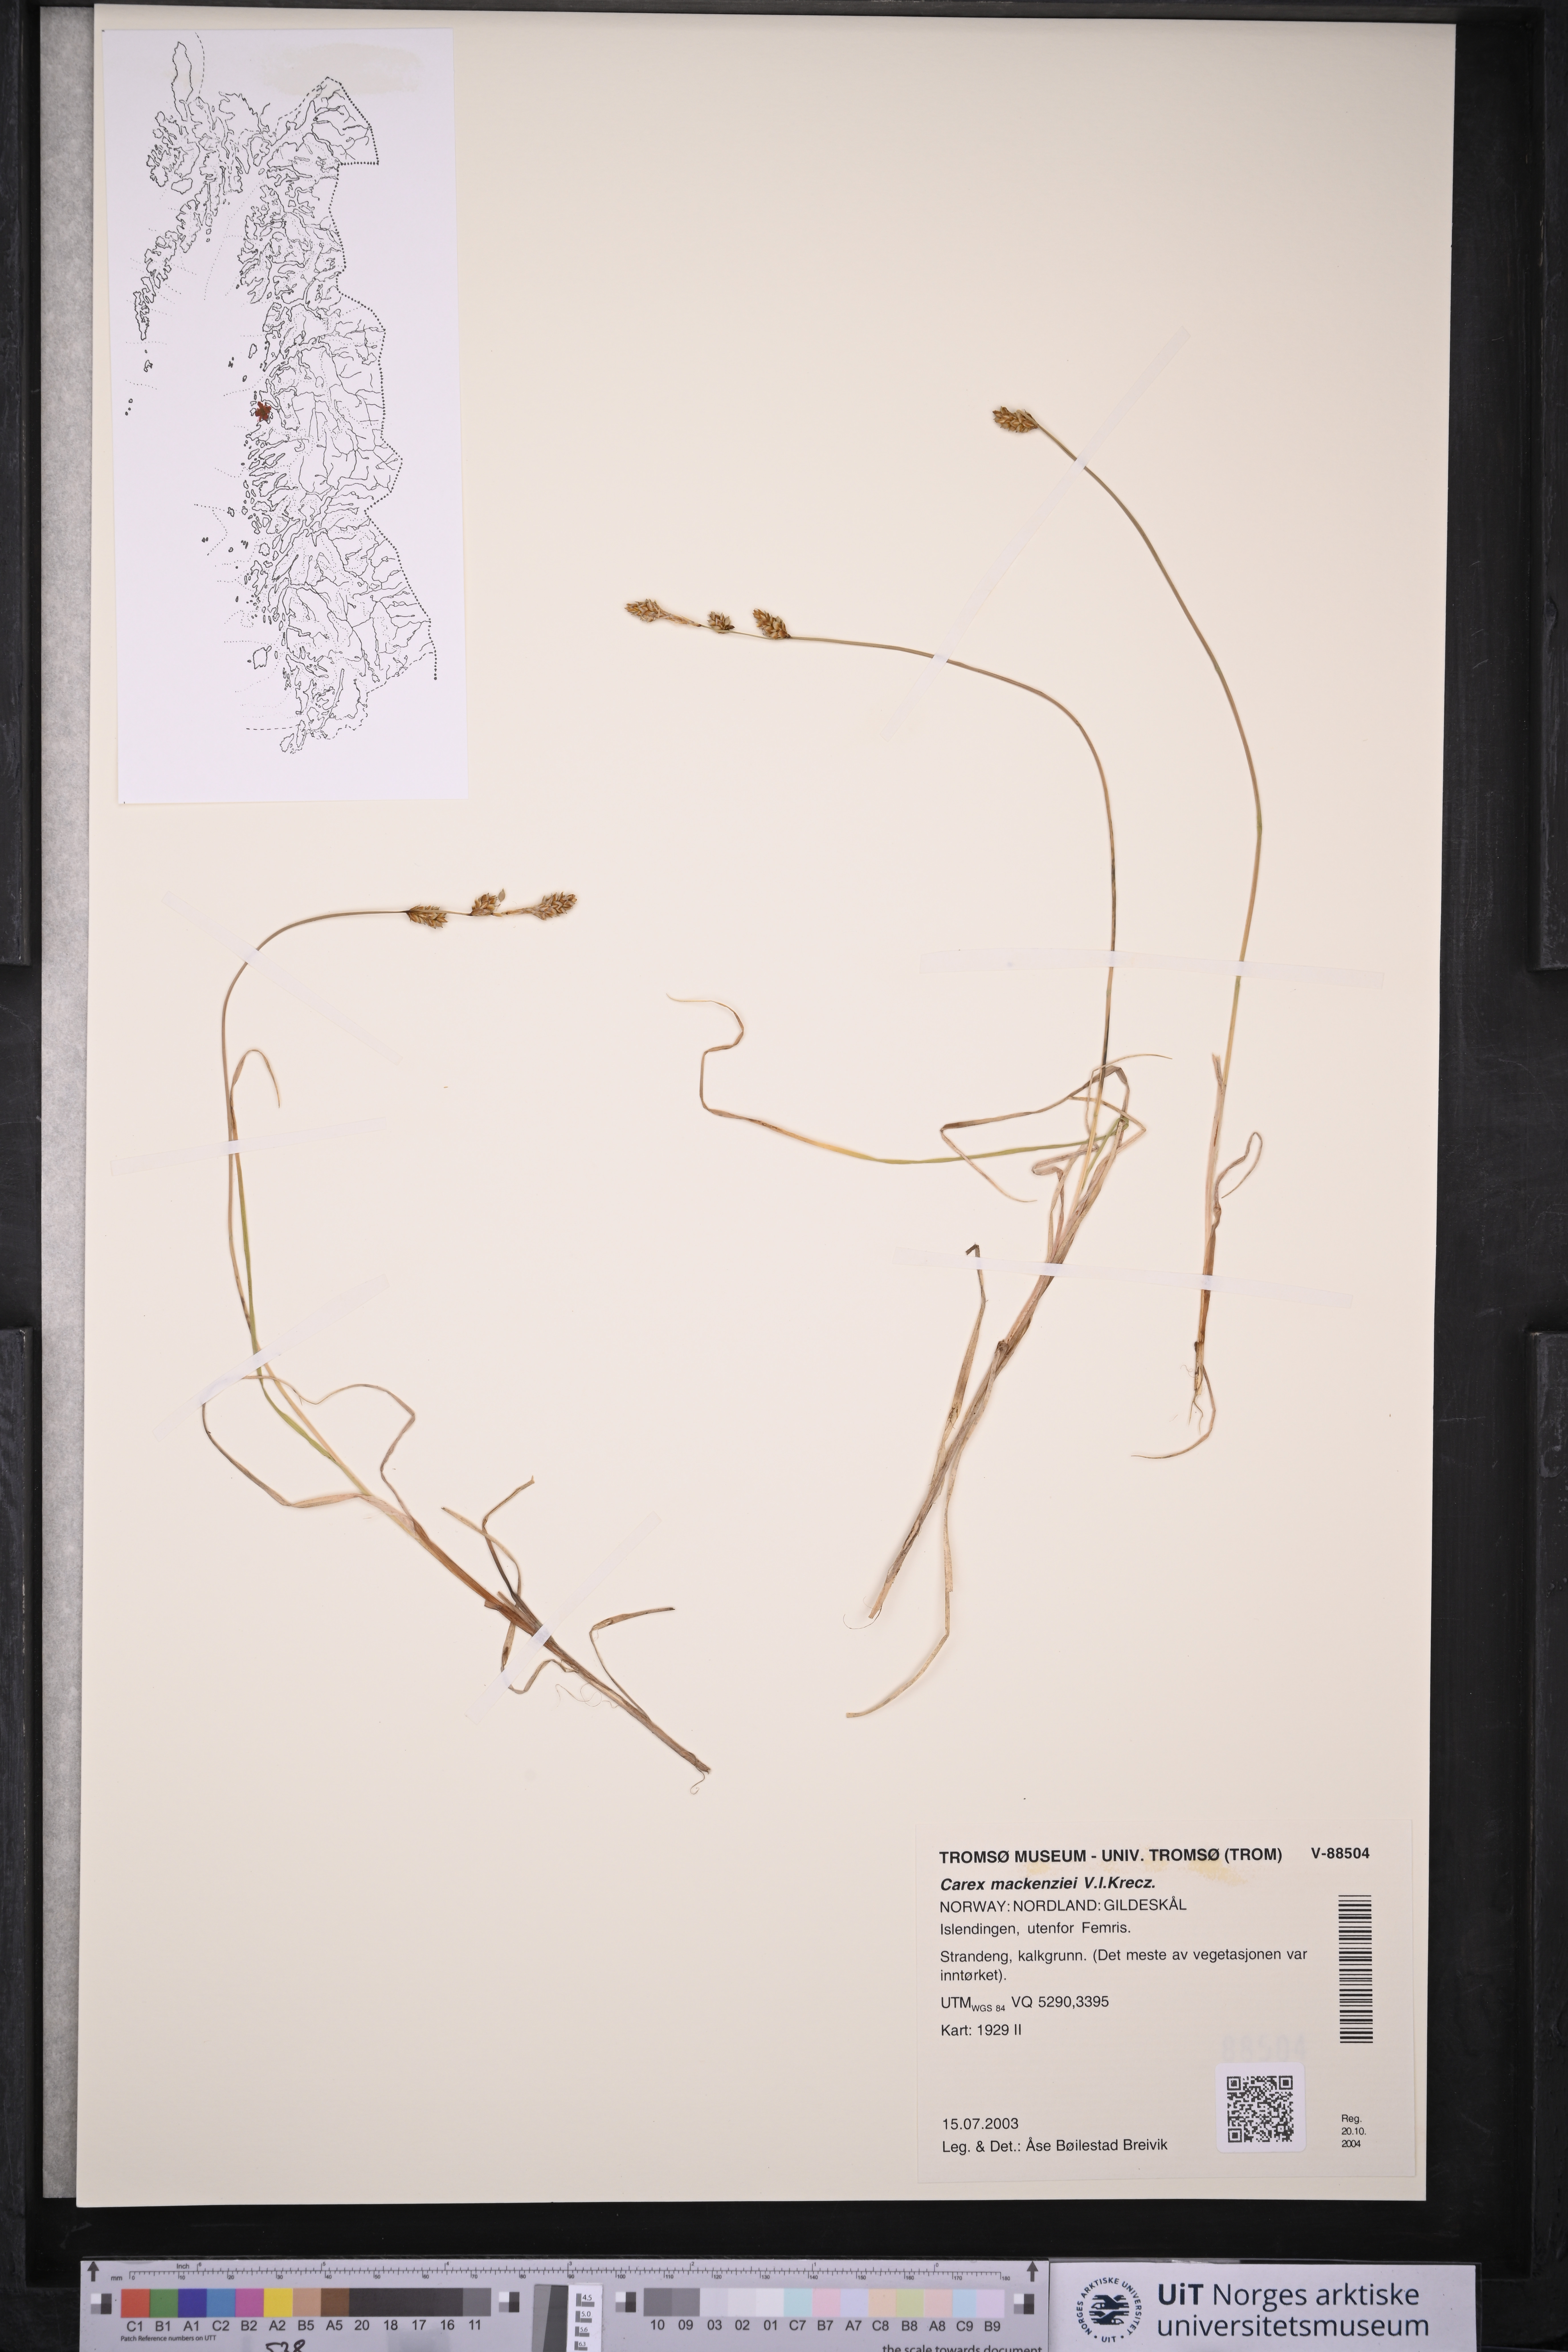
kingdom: Plantae
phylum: Tracheophyta
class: Liliopsida
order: Poales
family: Cyperaceae
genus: Carex
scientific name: Carex mackenziei
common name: Mackenzie's sedge
